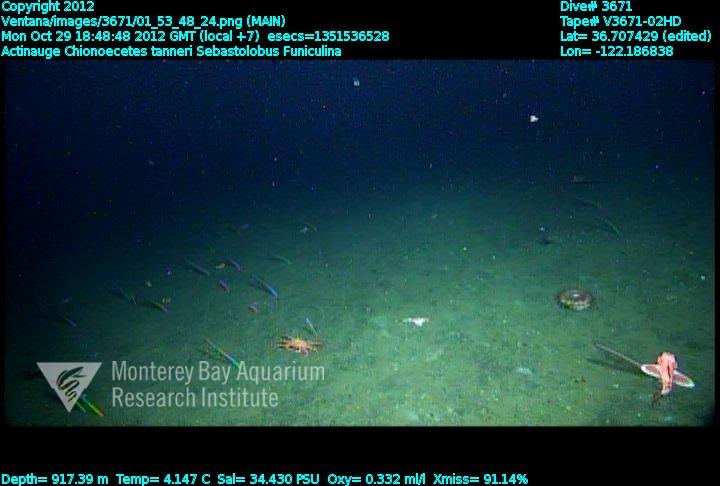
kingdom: Animalia
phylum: Cnidaria
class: Anthozoa
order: Scleralcyonacea
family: Funiculinidae
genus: Funiculina
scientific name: Funiculina
